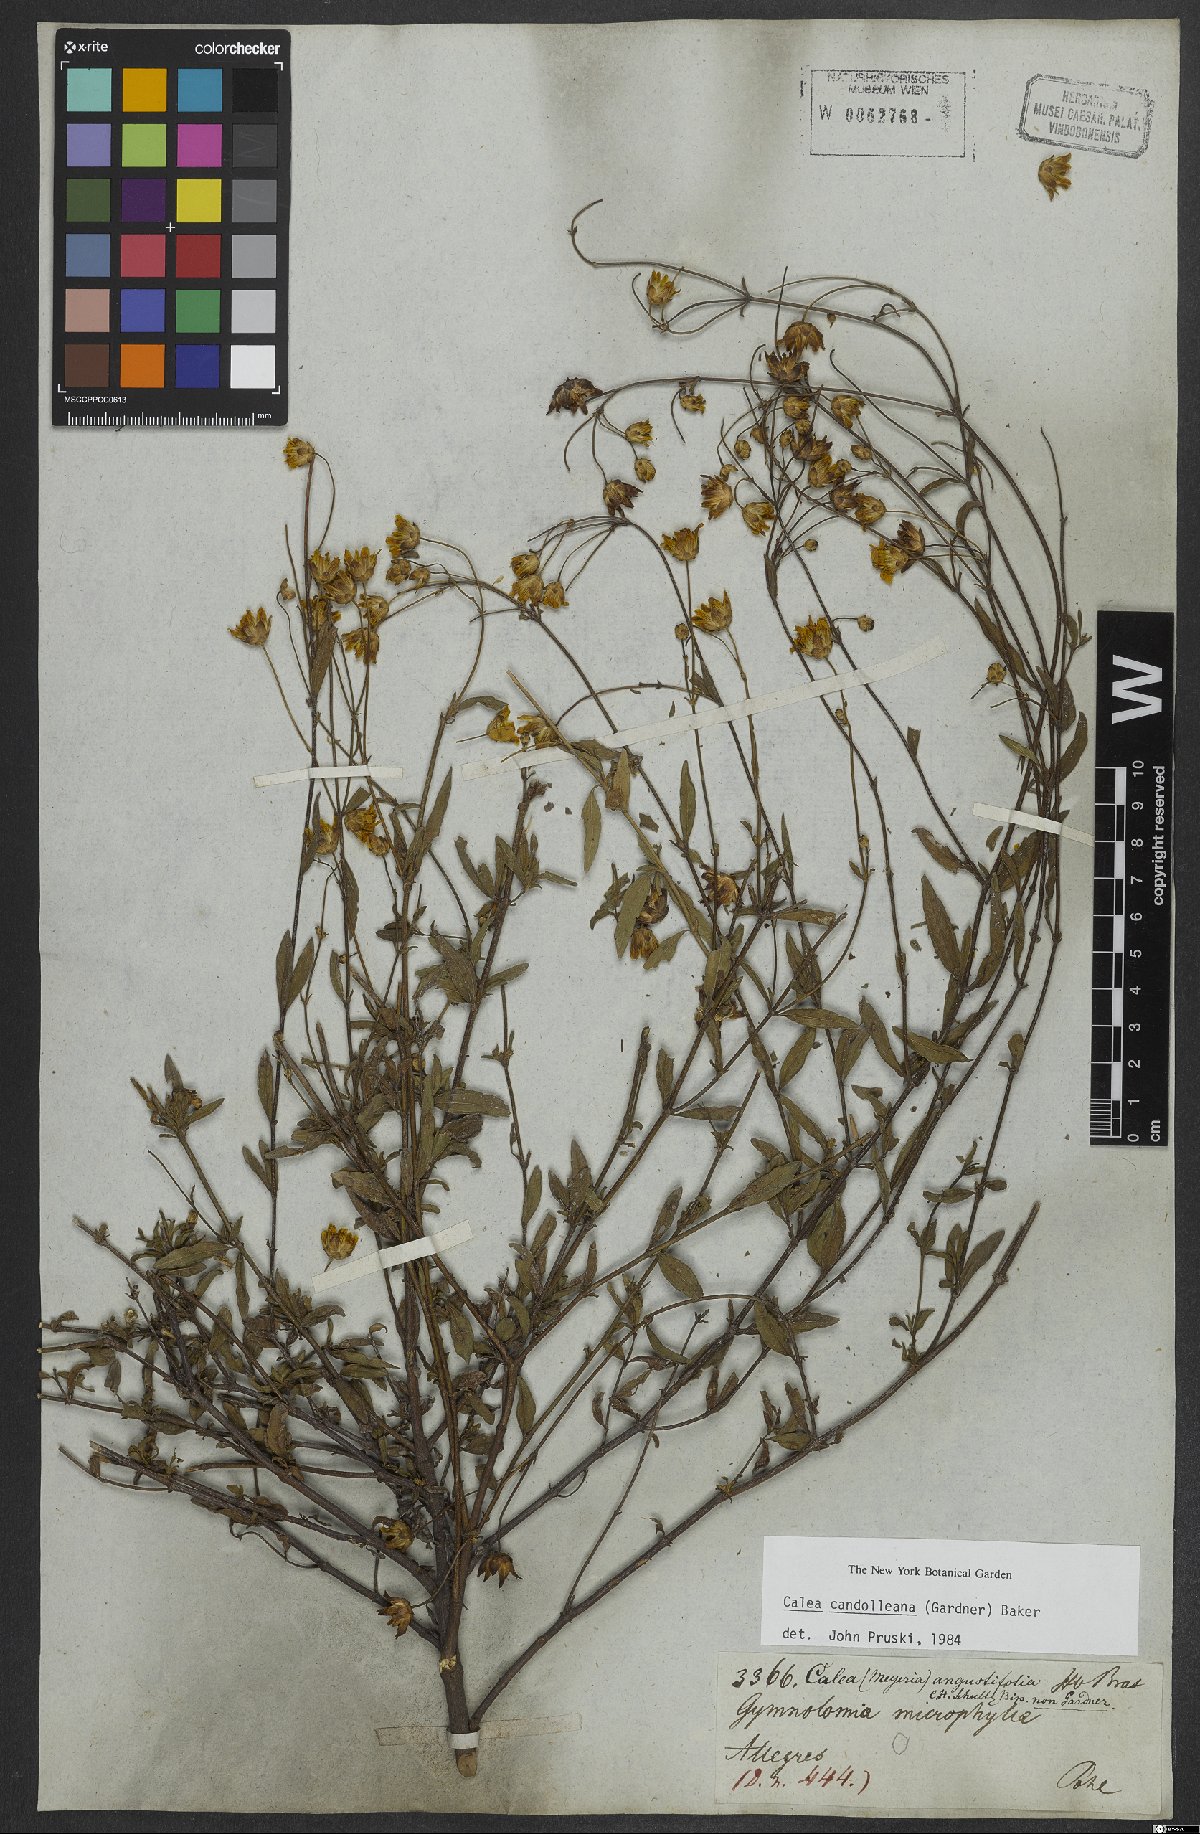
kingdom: Plantae
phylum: Tracheophyta
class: Magnoliopsida
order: Asterales
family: Asteraceae
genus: Calea
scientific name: Calea candolleana
